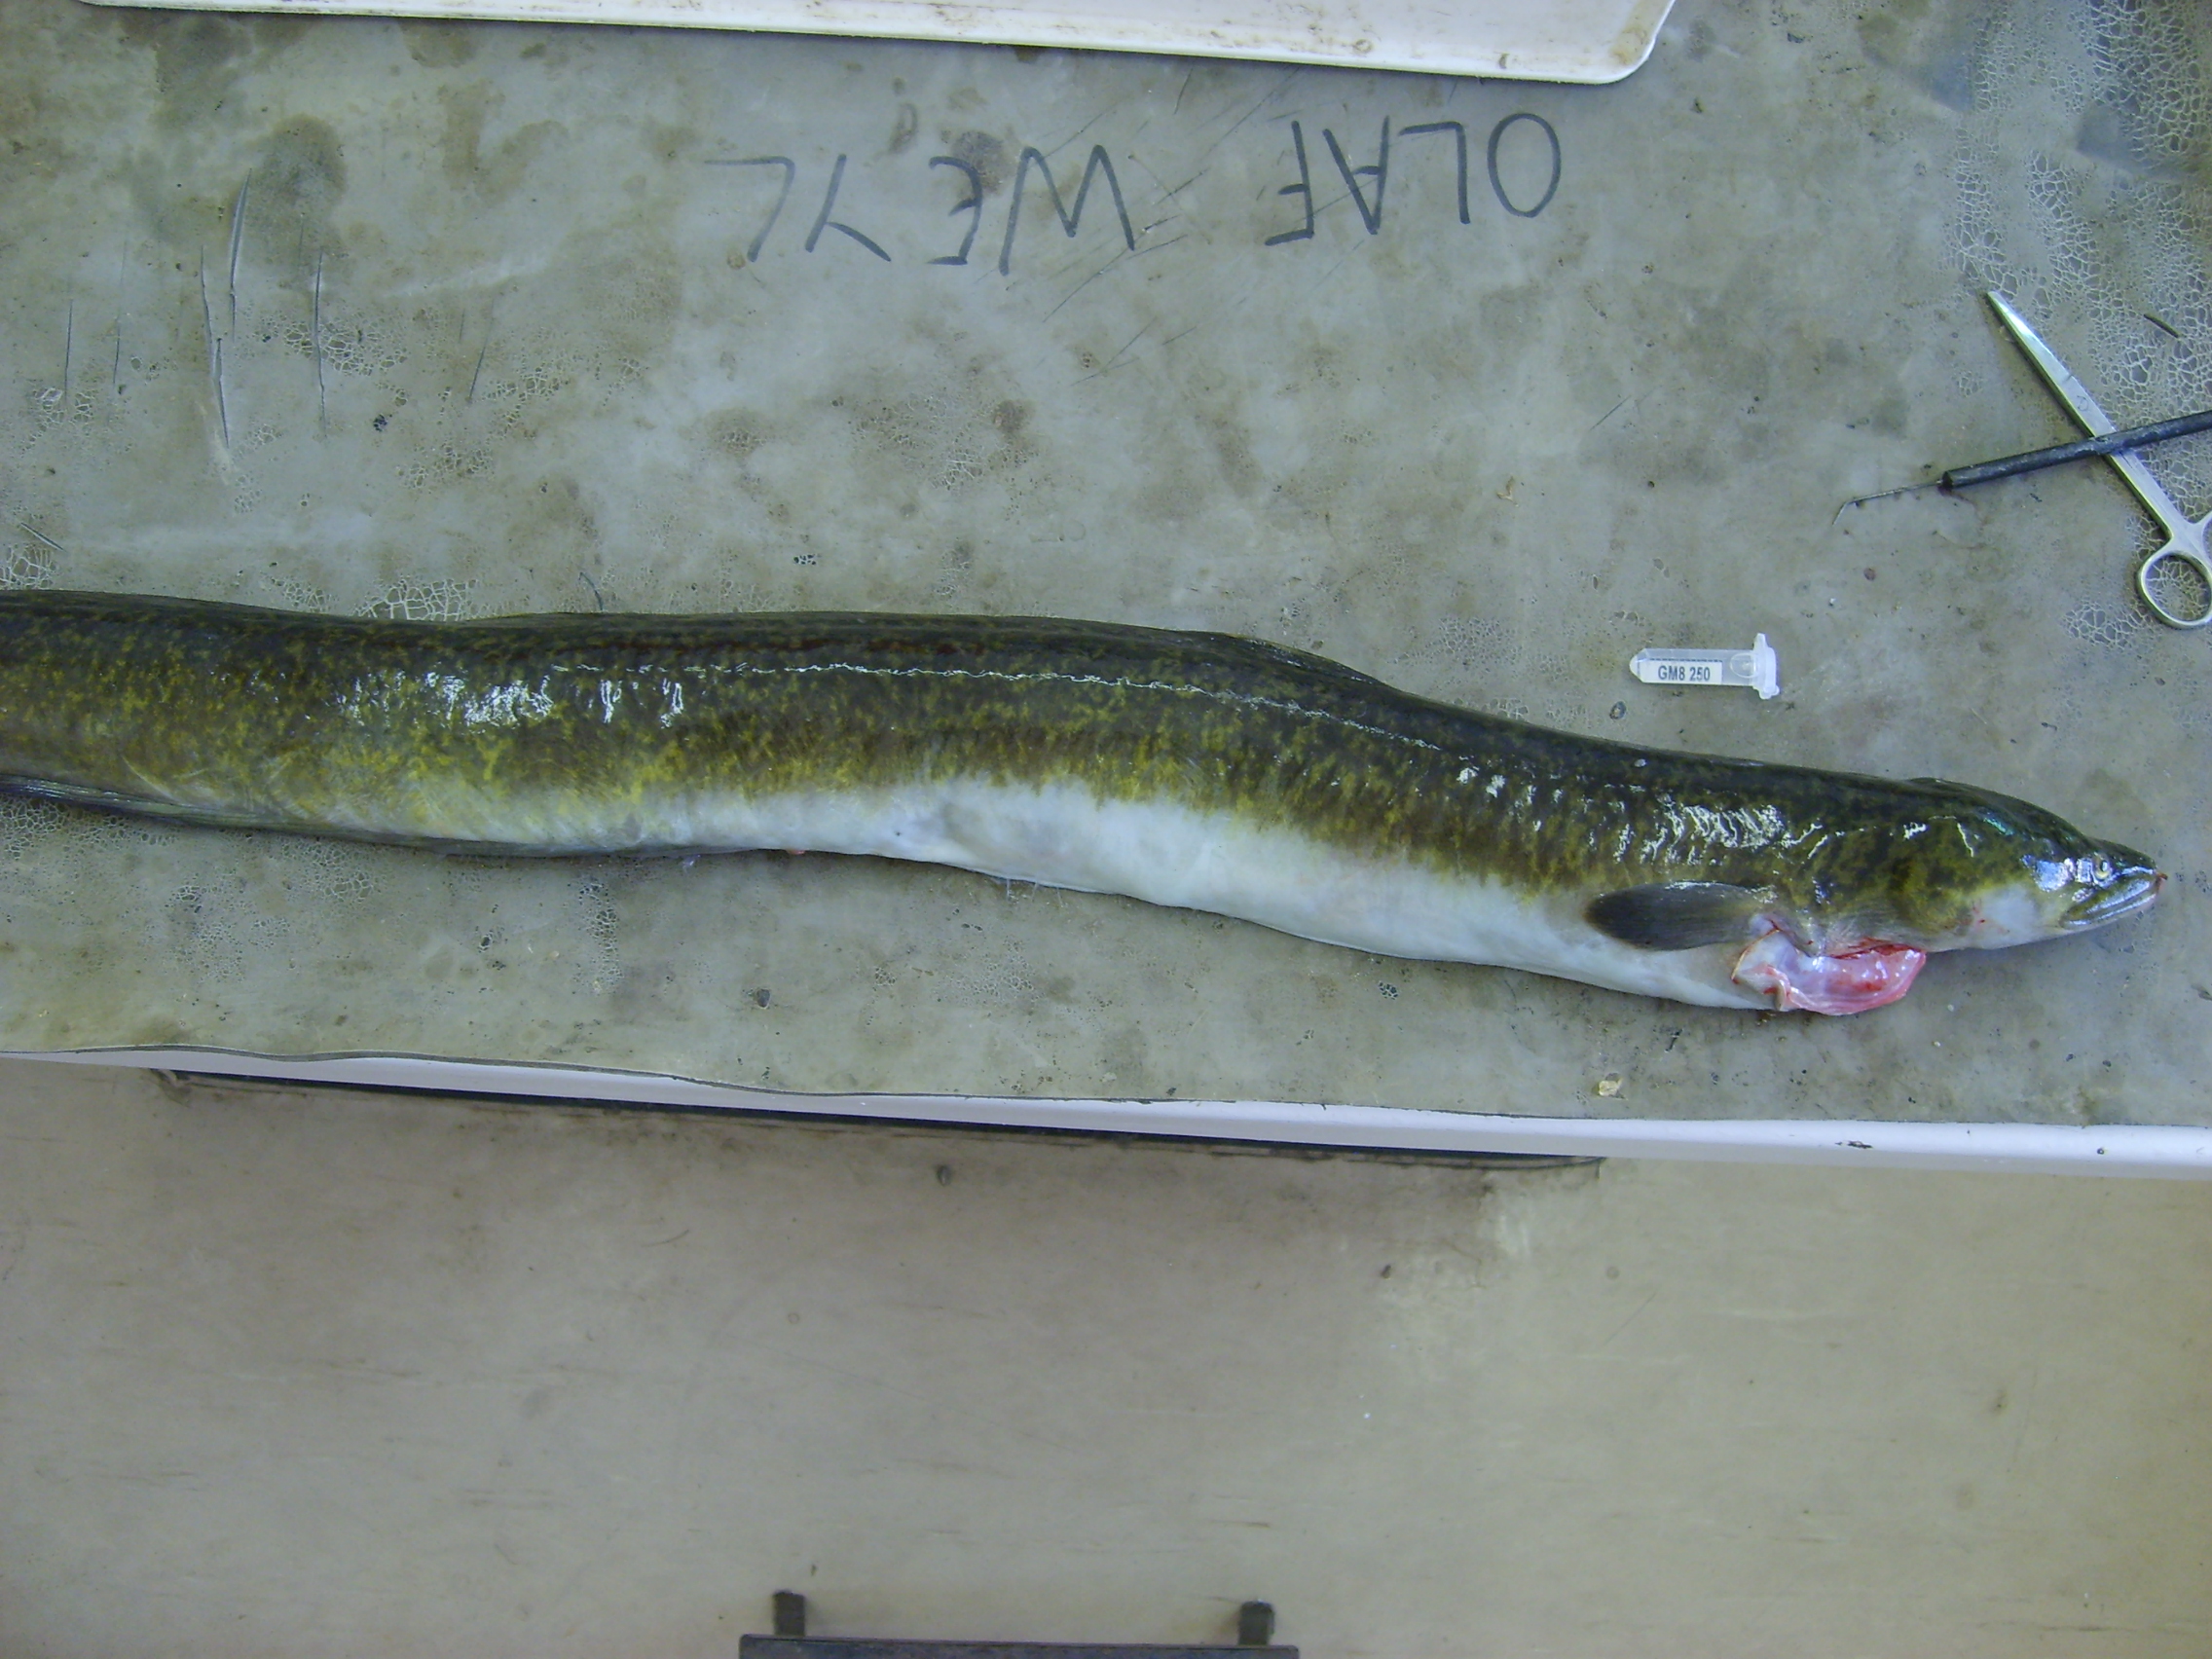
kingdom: Animalia
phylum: Chordata
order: Anguilliformes
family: Anguillidae
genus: Anguilla
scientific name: Anguilla marmorata
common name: Giant mottled eel
